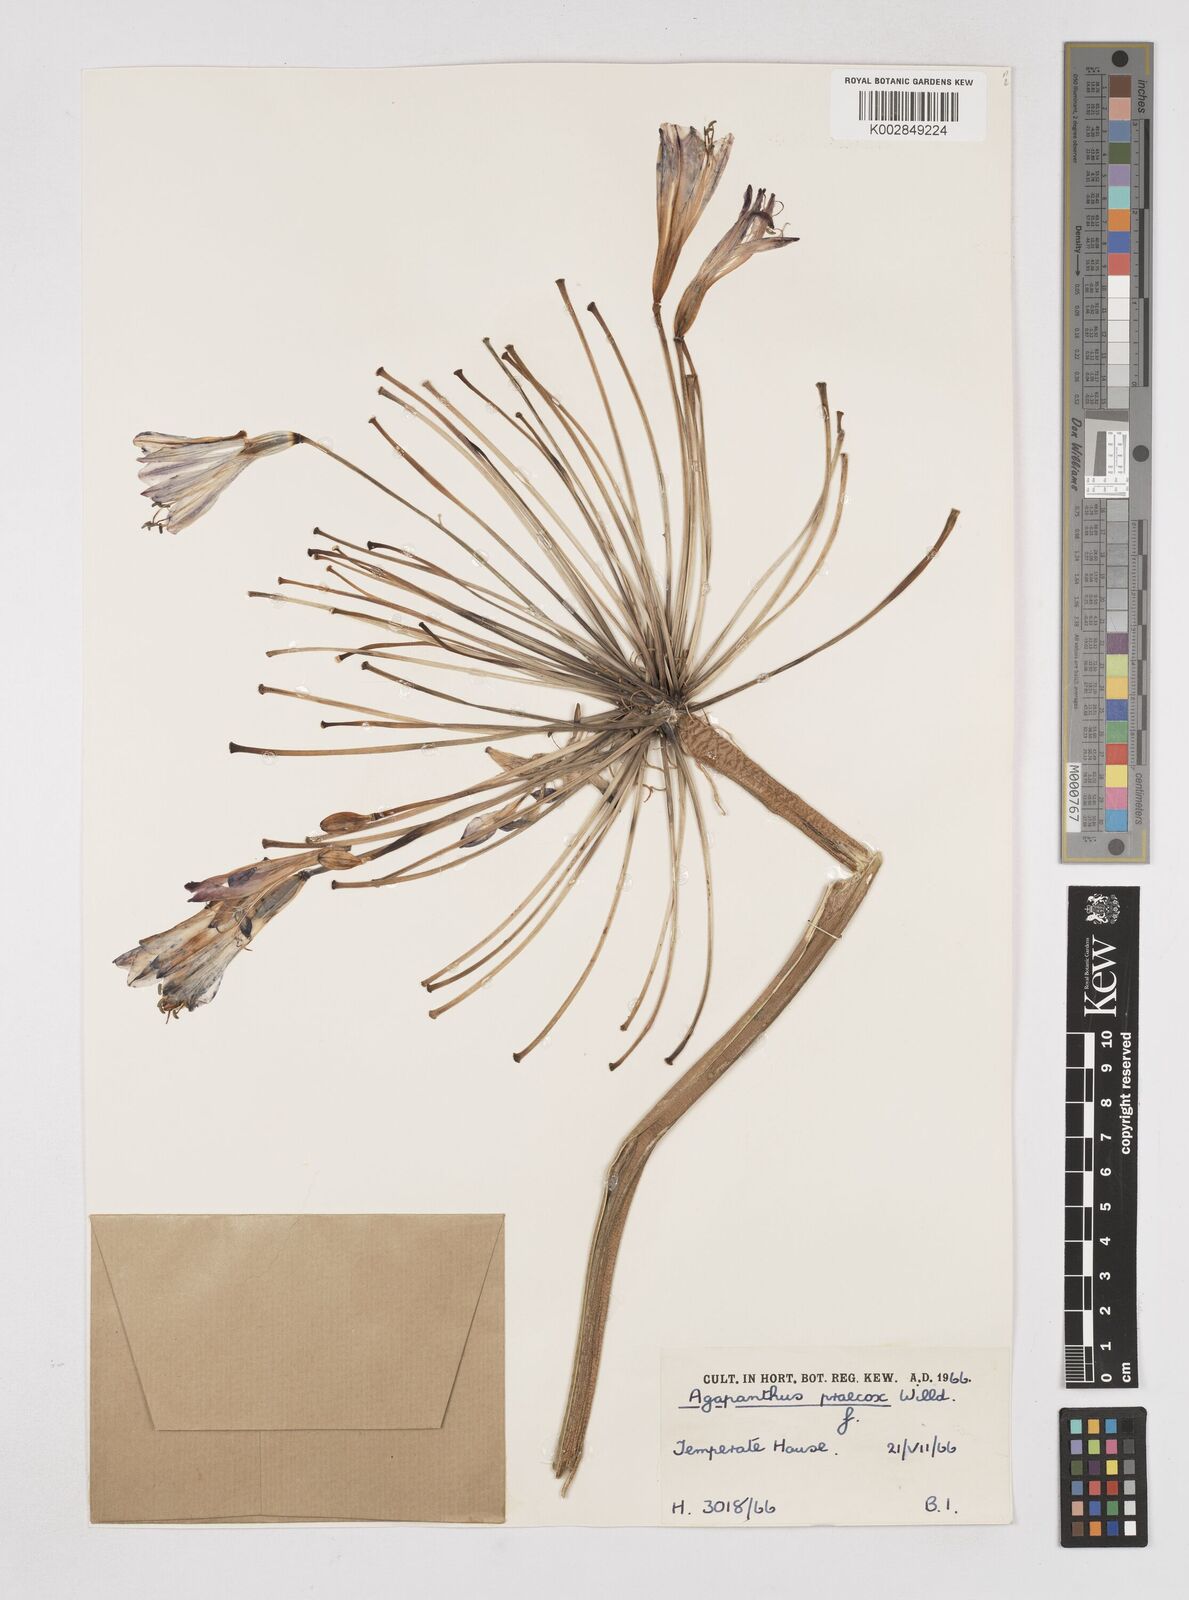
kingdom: Plantae
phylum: Tracheophyta
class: Liliopsida
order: Asparagales
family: Amaryllidaceae
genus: Agapanthus
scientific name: Agapanthus praecox
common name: African-lily
